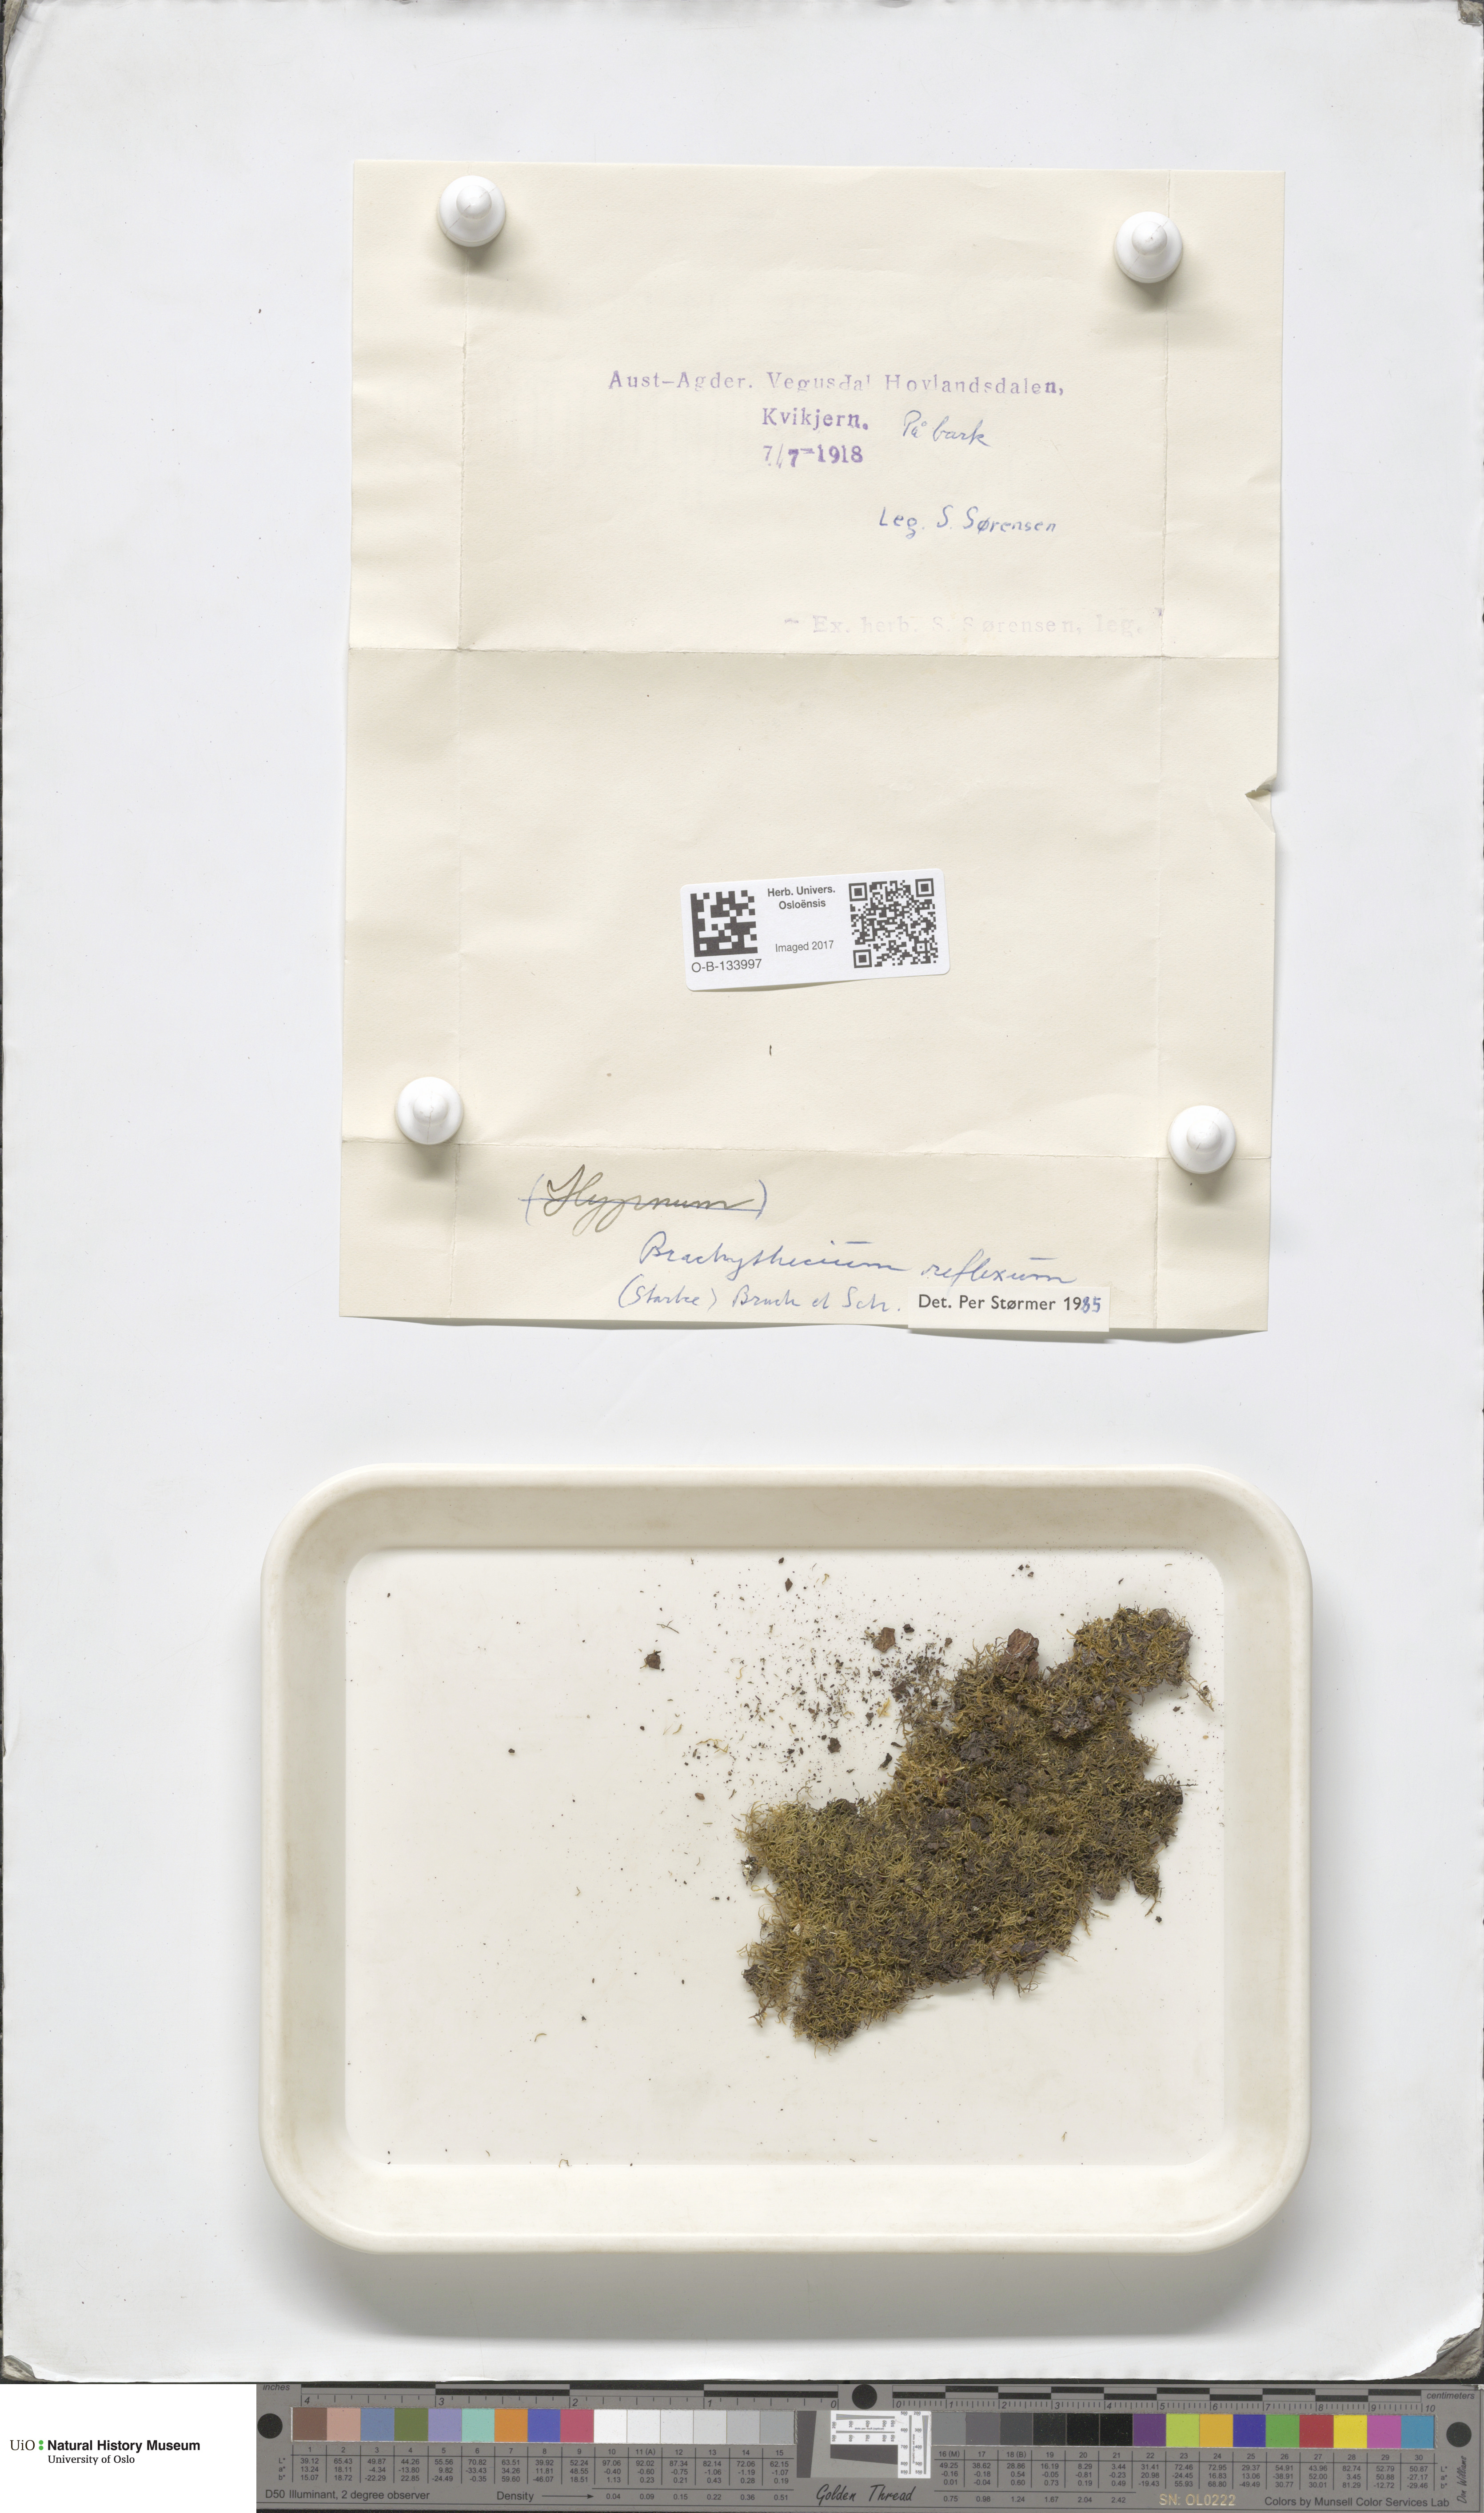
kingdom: Plantae
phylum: Bryophyta
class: Bryopsida
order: Hypnales
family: Brachytheciaceae
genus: Sciuro-hypnum
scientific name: Sciuro-hypnum reflexum
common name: Reflexed feather-moss
